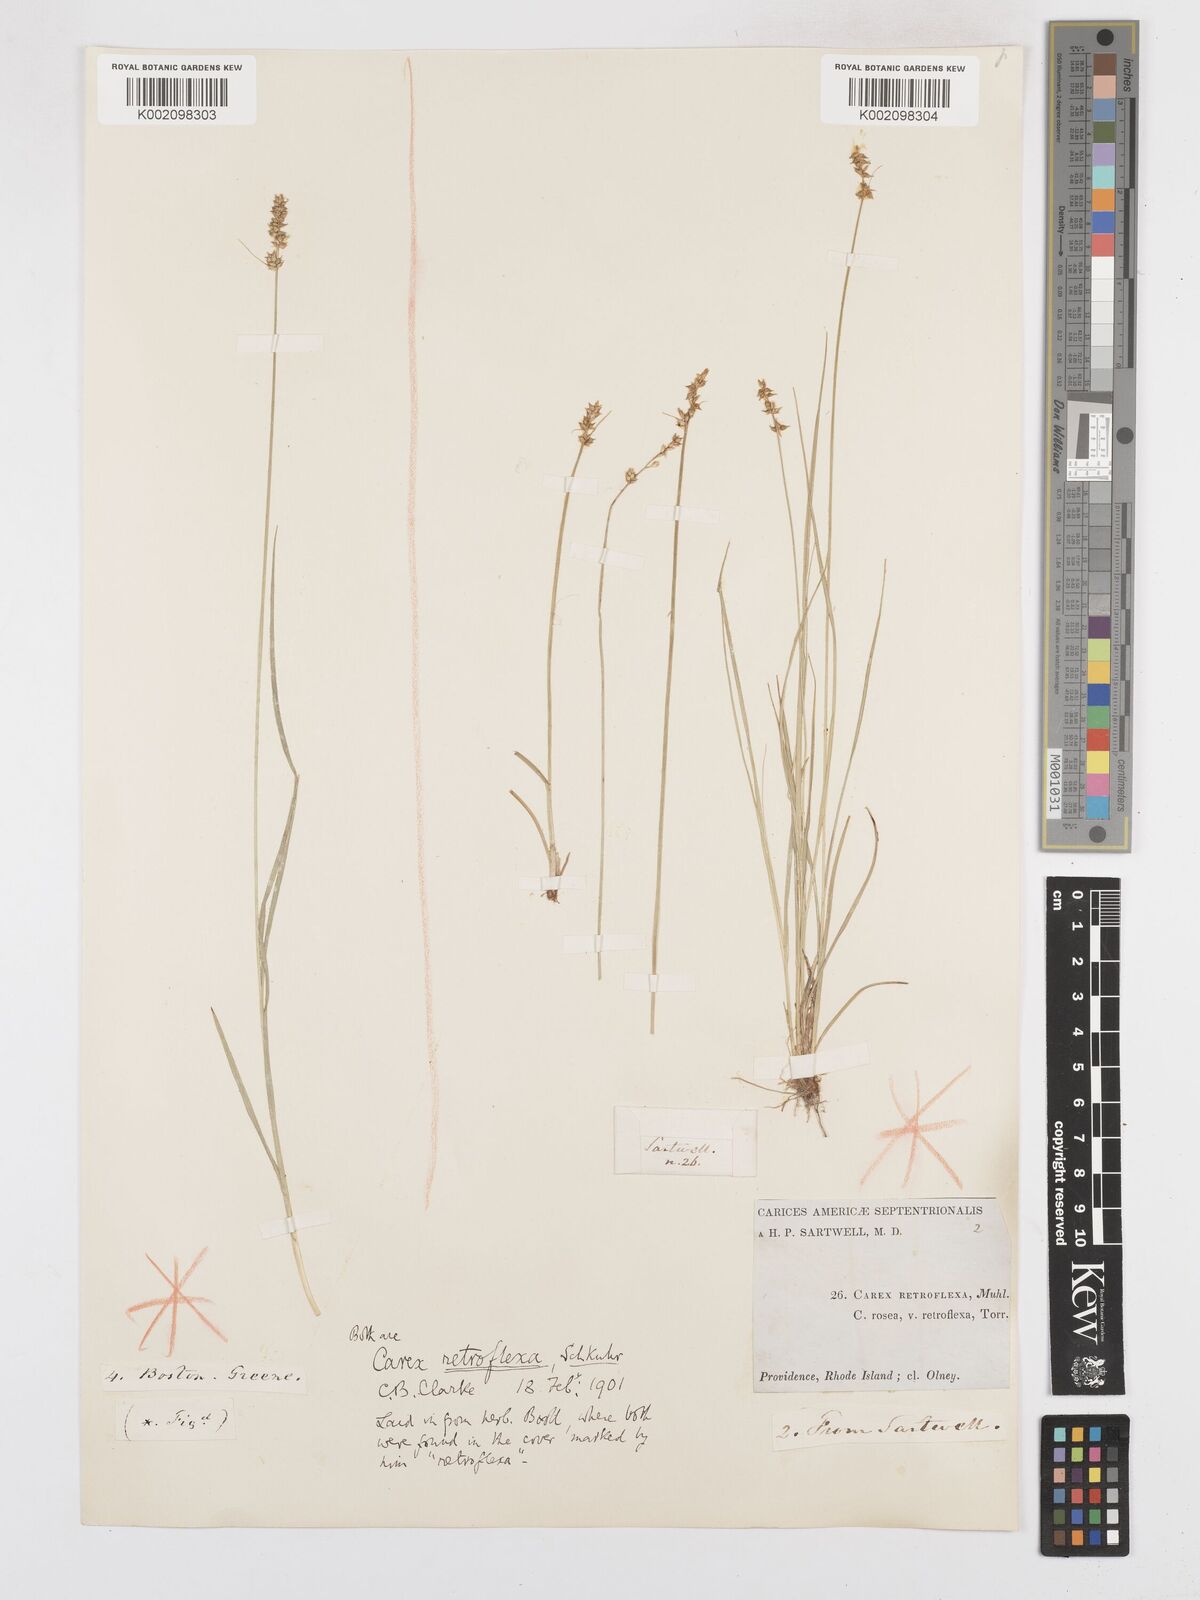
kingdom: Plantae
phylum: Tracheophyta
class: Liliopsida
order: Poales
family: Cyperaceae
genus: Carex
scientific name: Carex retroflexa
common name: Reflexed sedge
